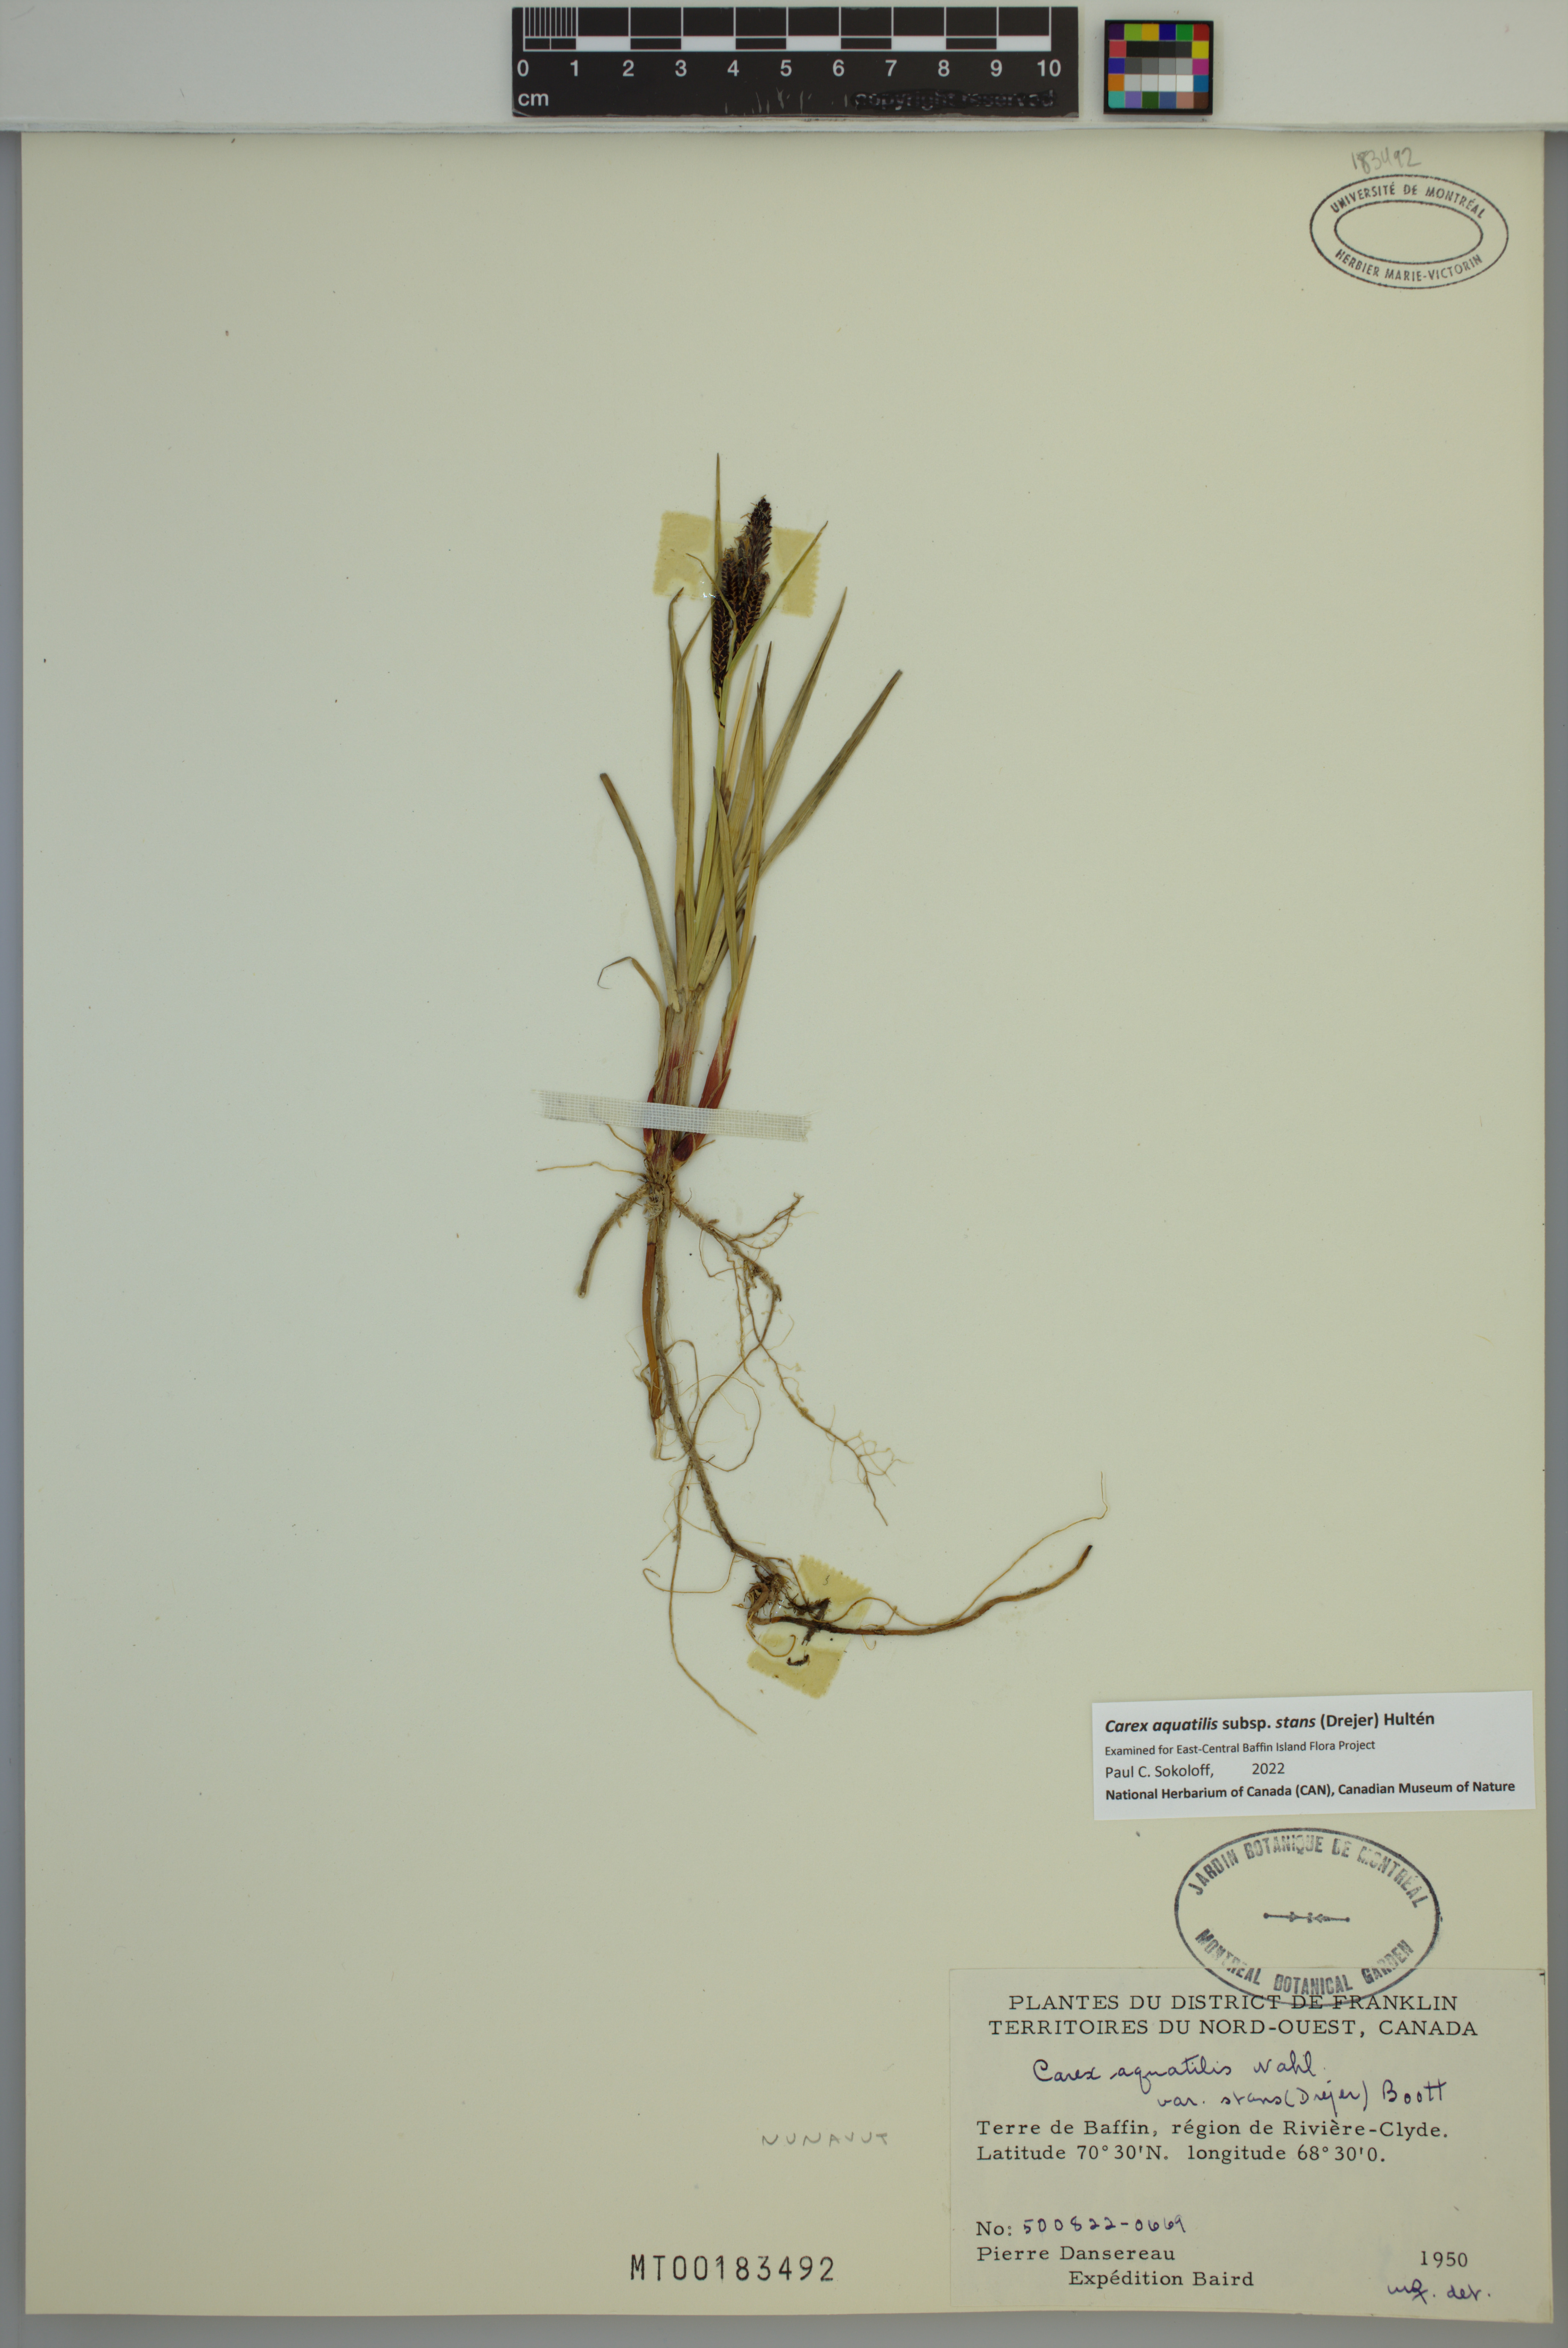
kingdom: Plantae
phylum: Tracheophyta
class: Liliopsida
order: Poales
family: Cyperaceae
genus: Carex
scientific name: Carex aquatilis
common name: Water sedge
